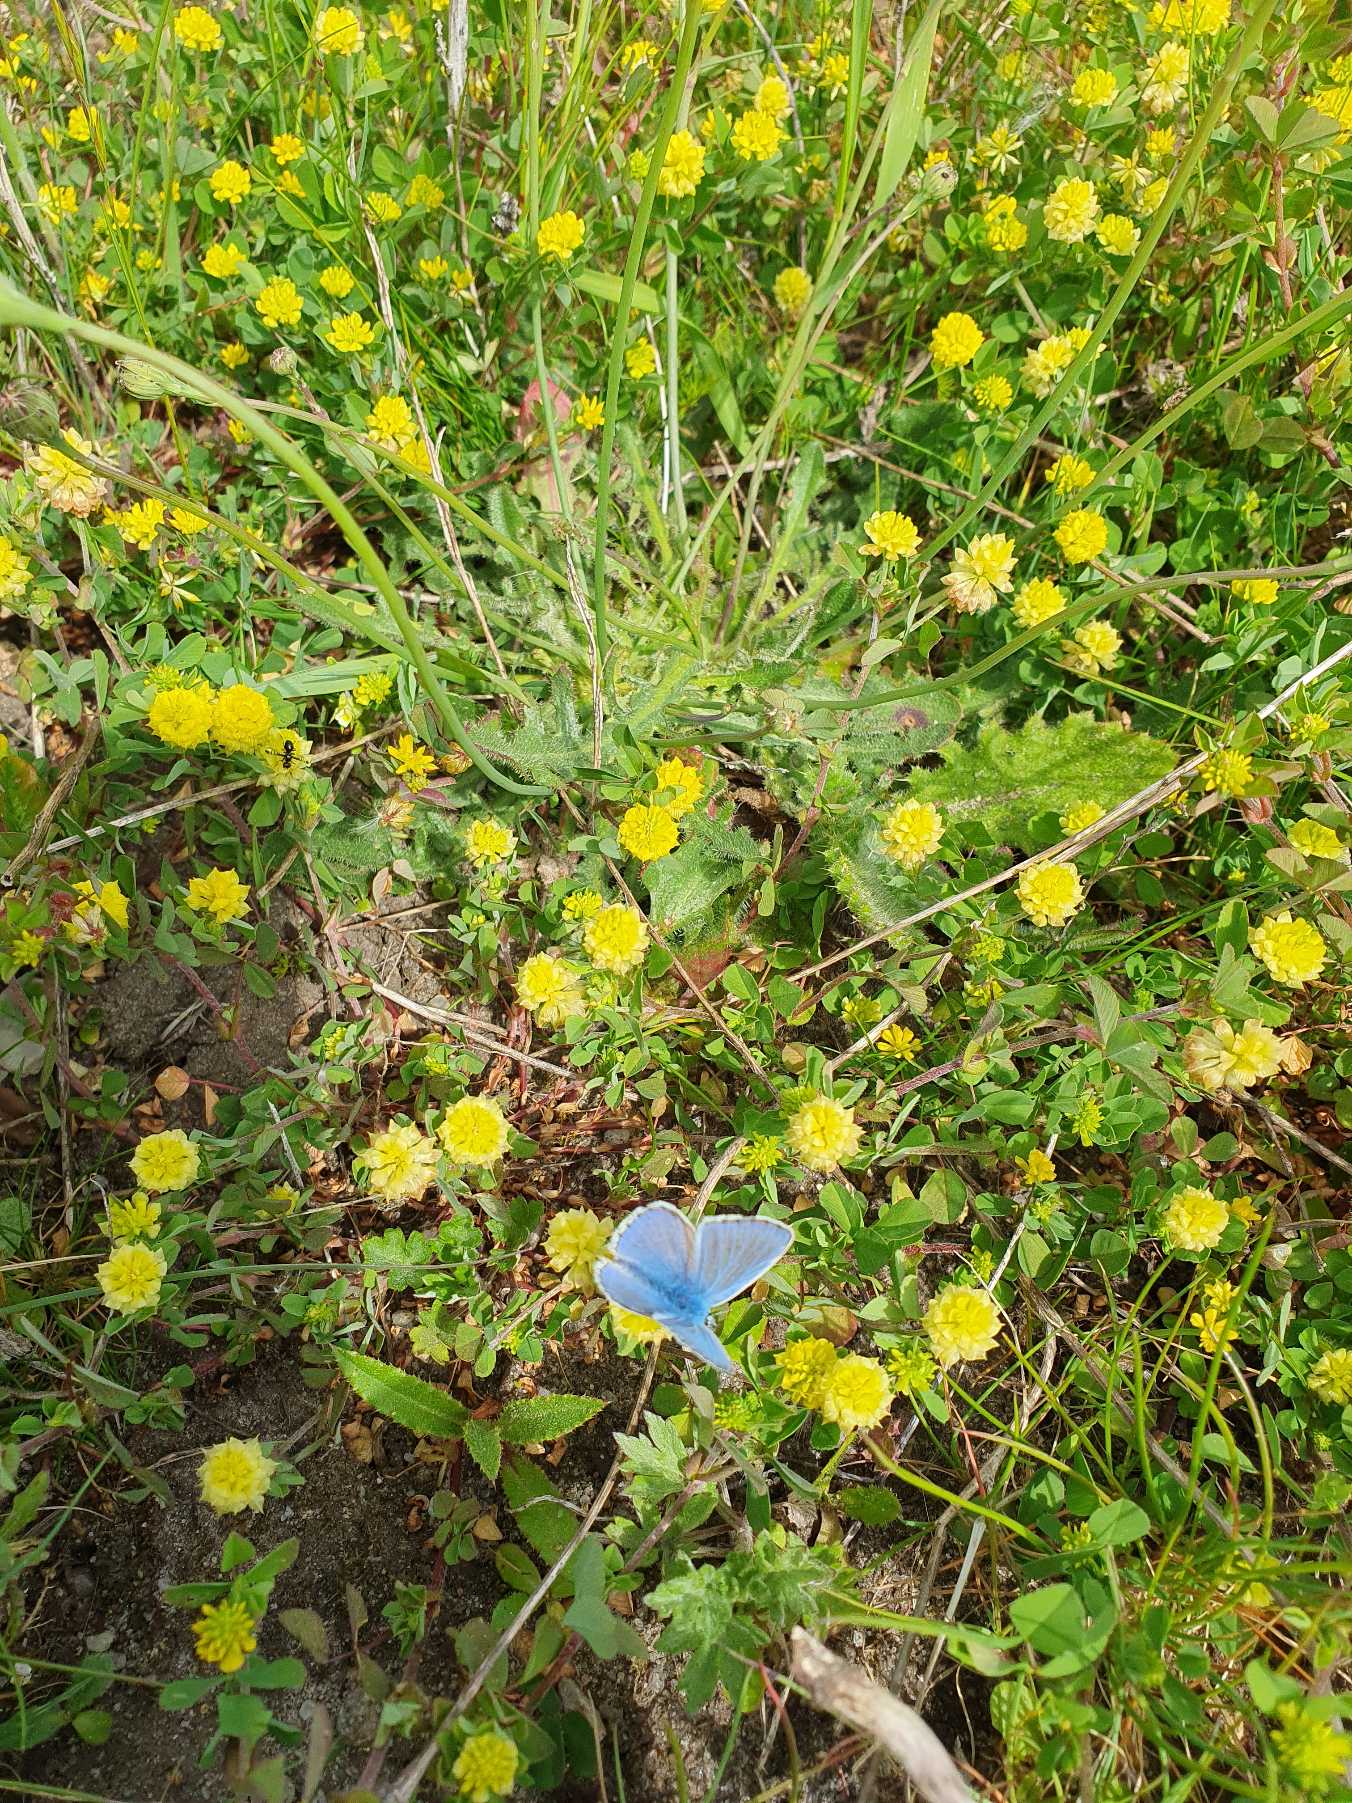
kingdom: Animalia
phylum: Arthropoda
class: Insecta
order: Lepidoptera
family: Lycaenidae
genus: Polyommatus
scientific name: Polyommatus icarus
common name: Almindelig blåfugl
